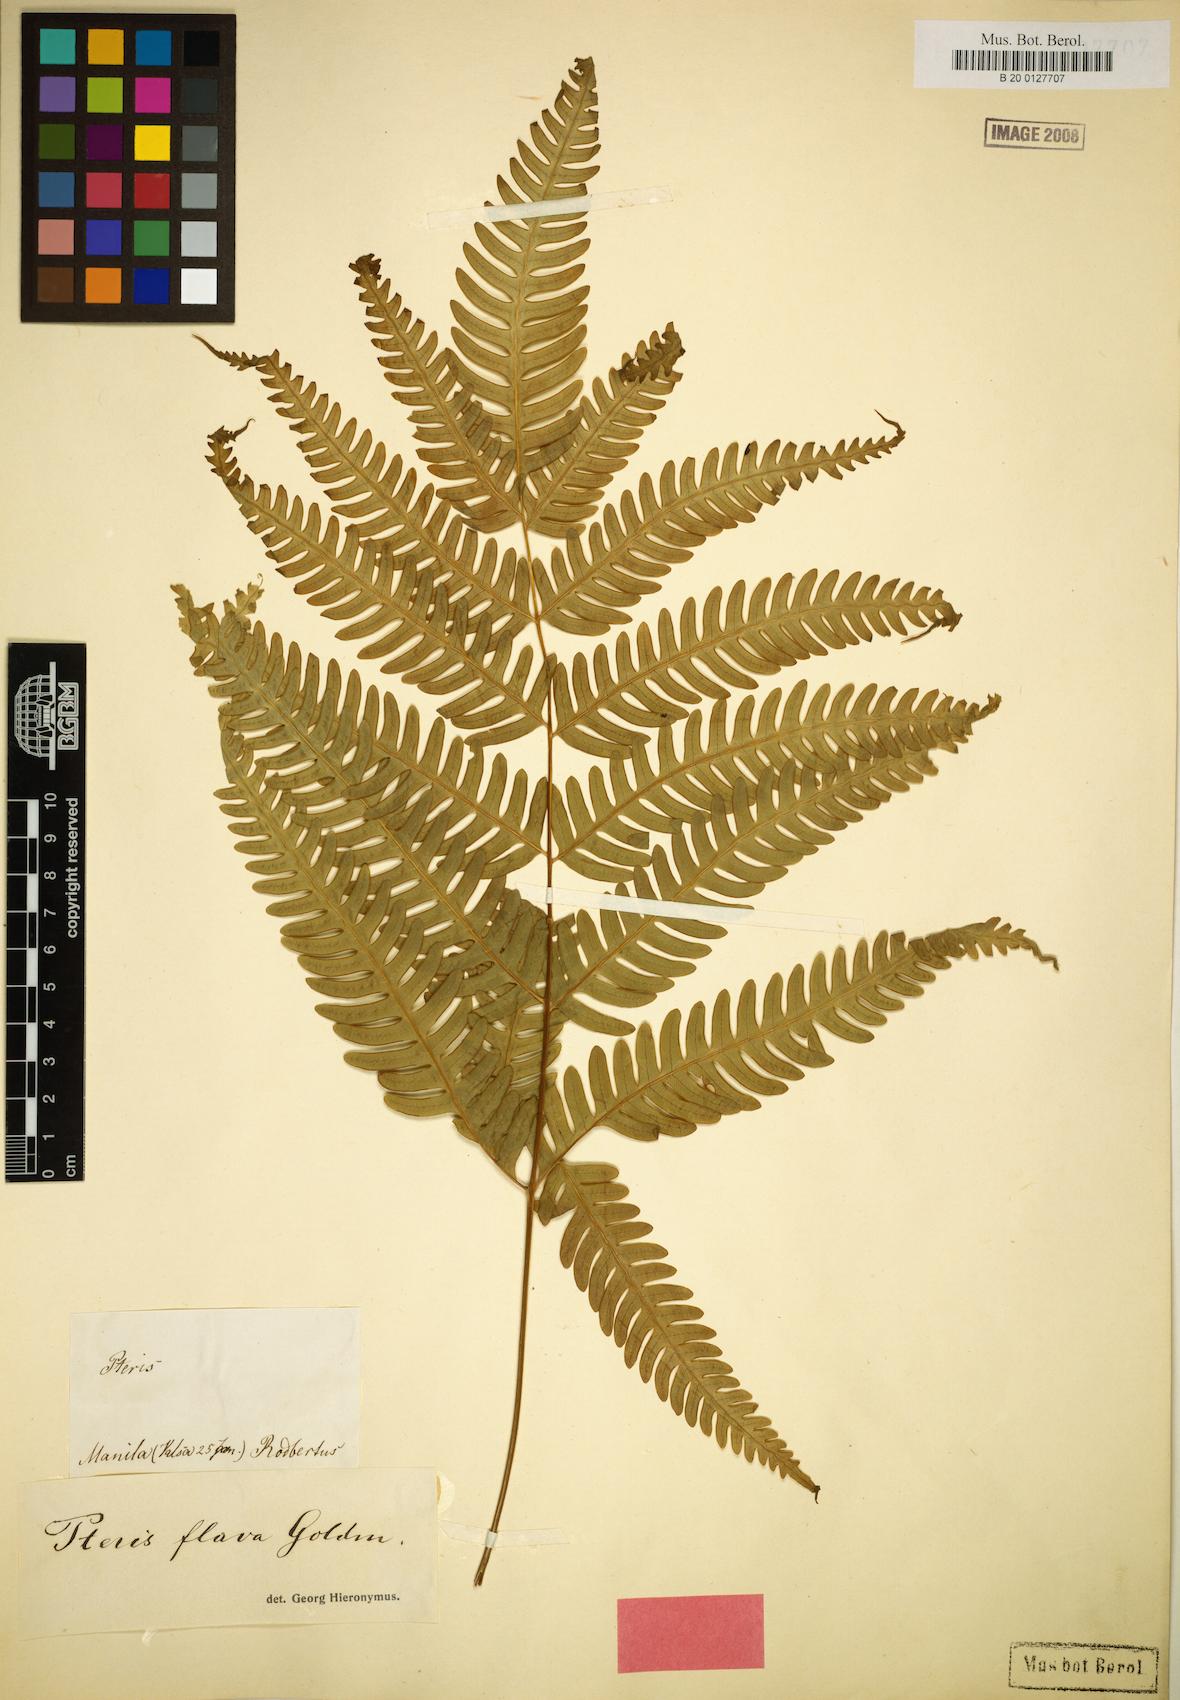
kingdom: Plantae
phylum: Tracheophyta
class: Polypodiopsida
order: Polypodiales
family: Pteridaceae
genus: Pteris
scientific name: Pteris glaucovirens
